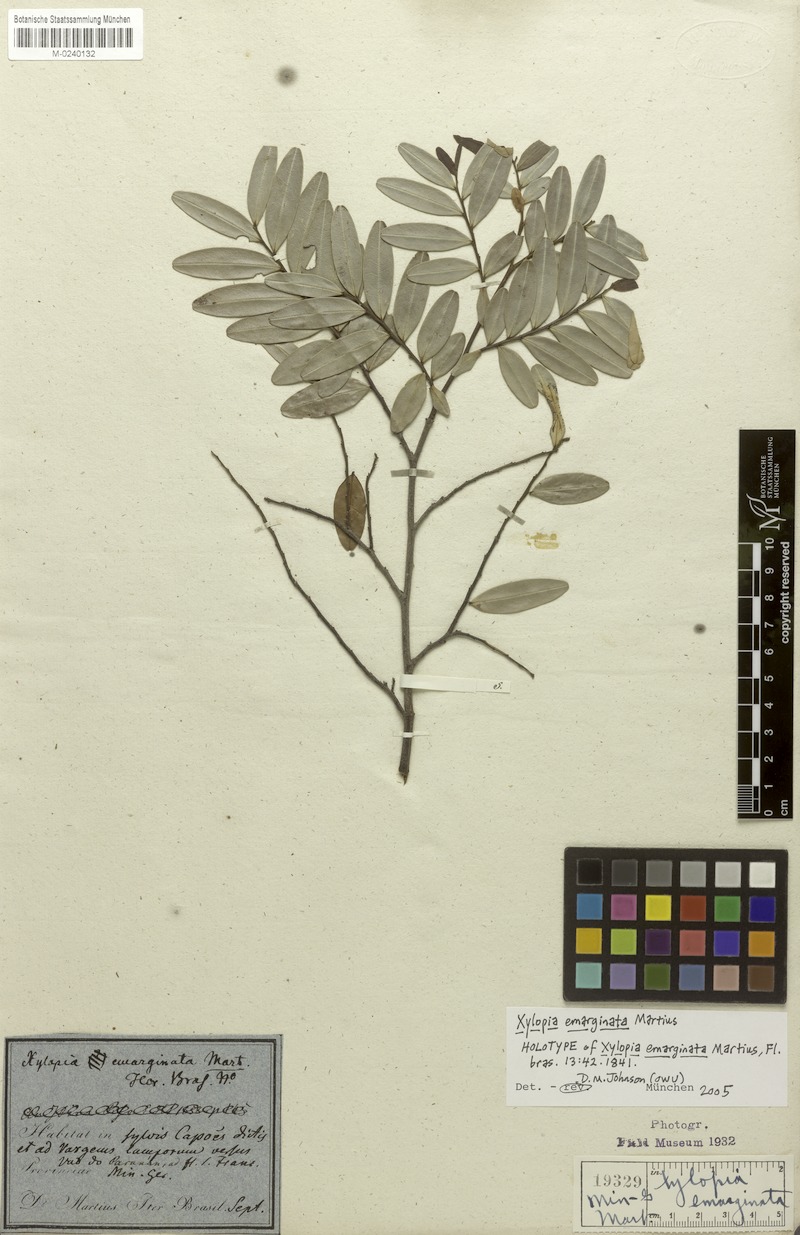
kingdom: Plantae
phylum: Tracheophyta
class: Magnoliopsida
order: Magnoliales
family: Annonaceae
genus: Xylopia
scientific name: Xylopia emarginata
